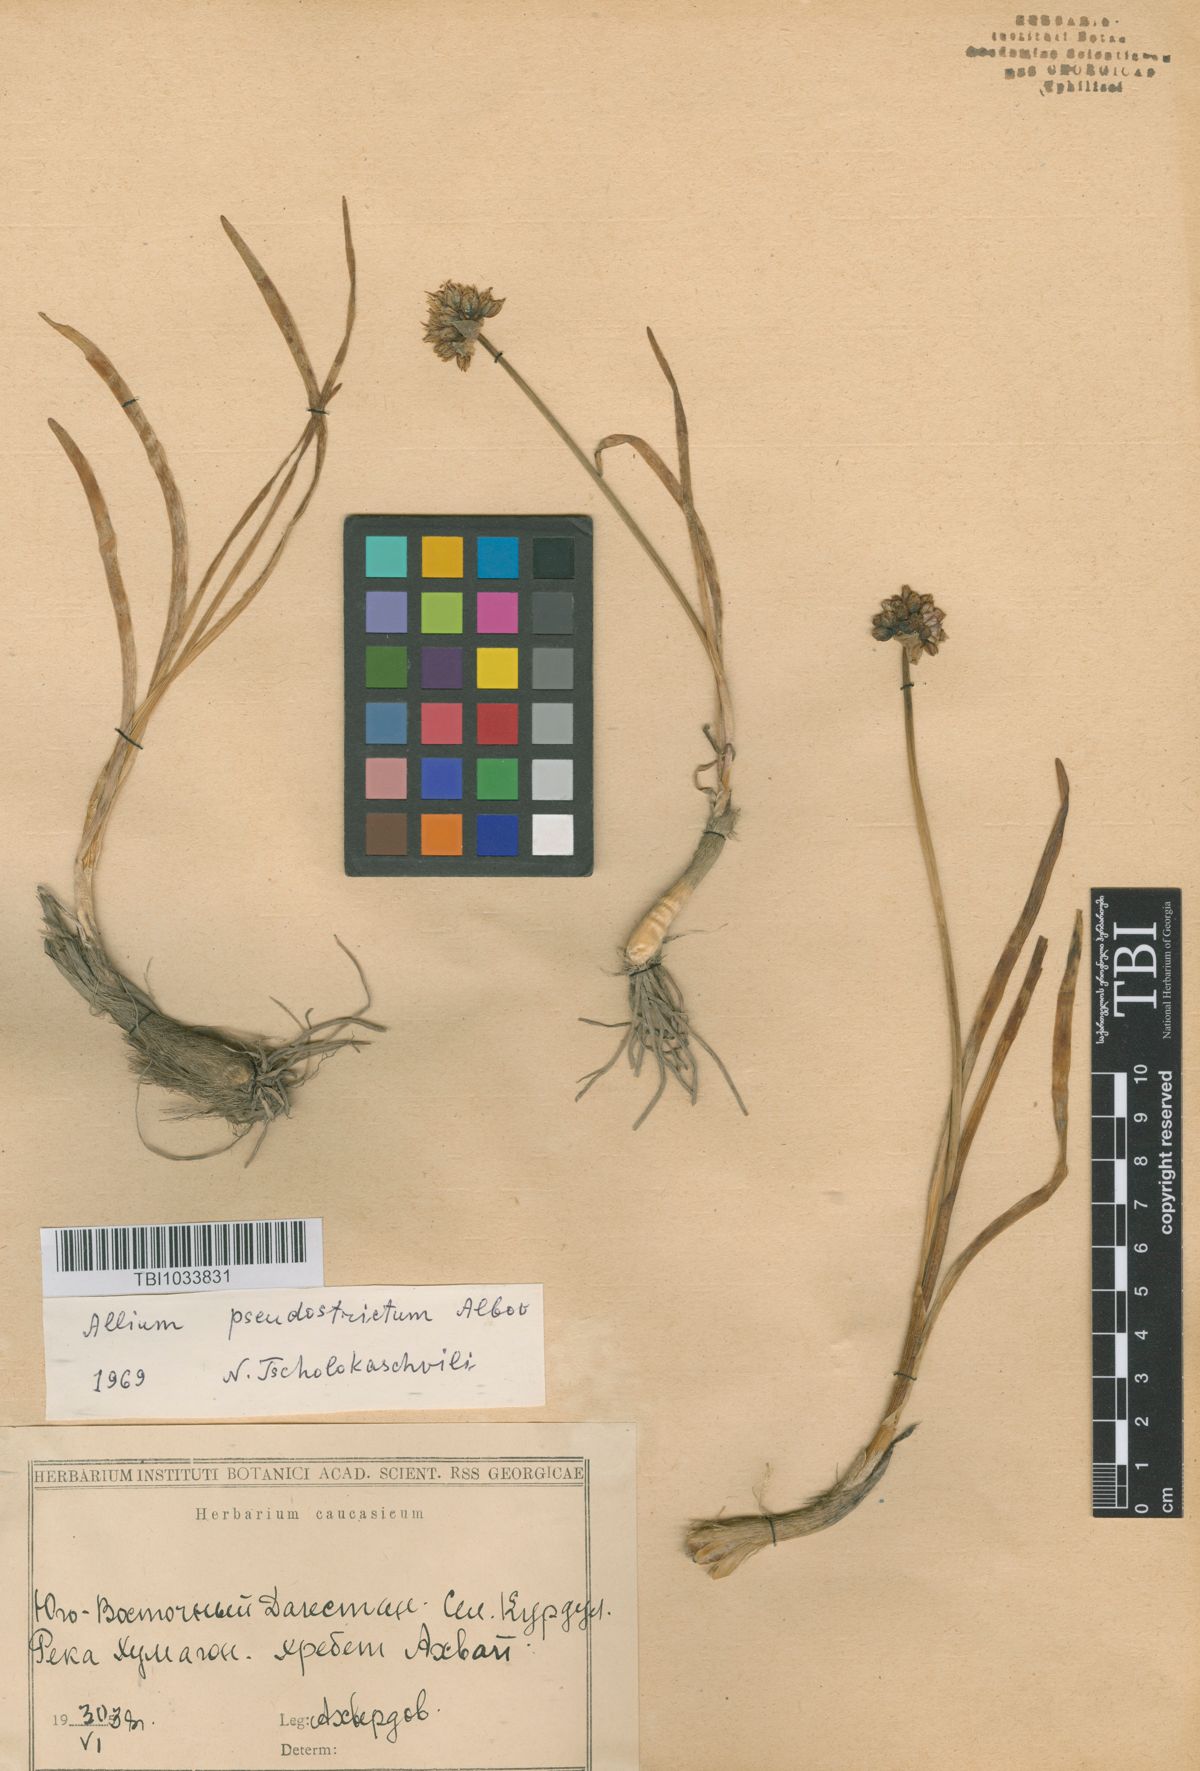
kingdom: Plantae
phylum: Tracheophyta
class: Liliopsida
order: Asparagales
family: Amaryllidaceae
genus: Allium
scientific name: Allium pseudostrictum
